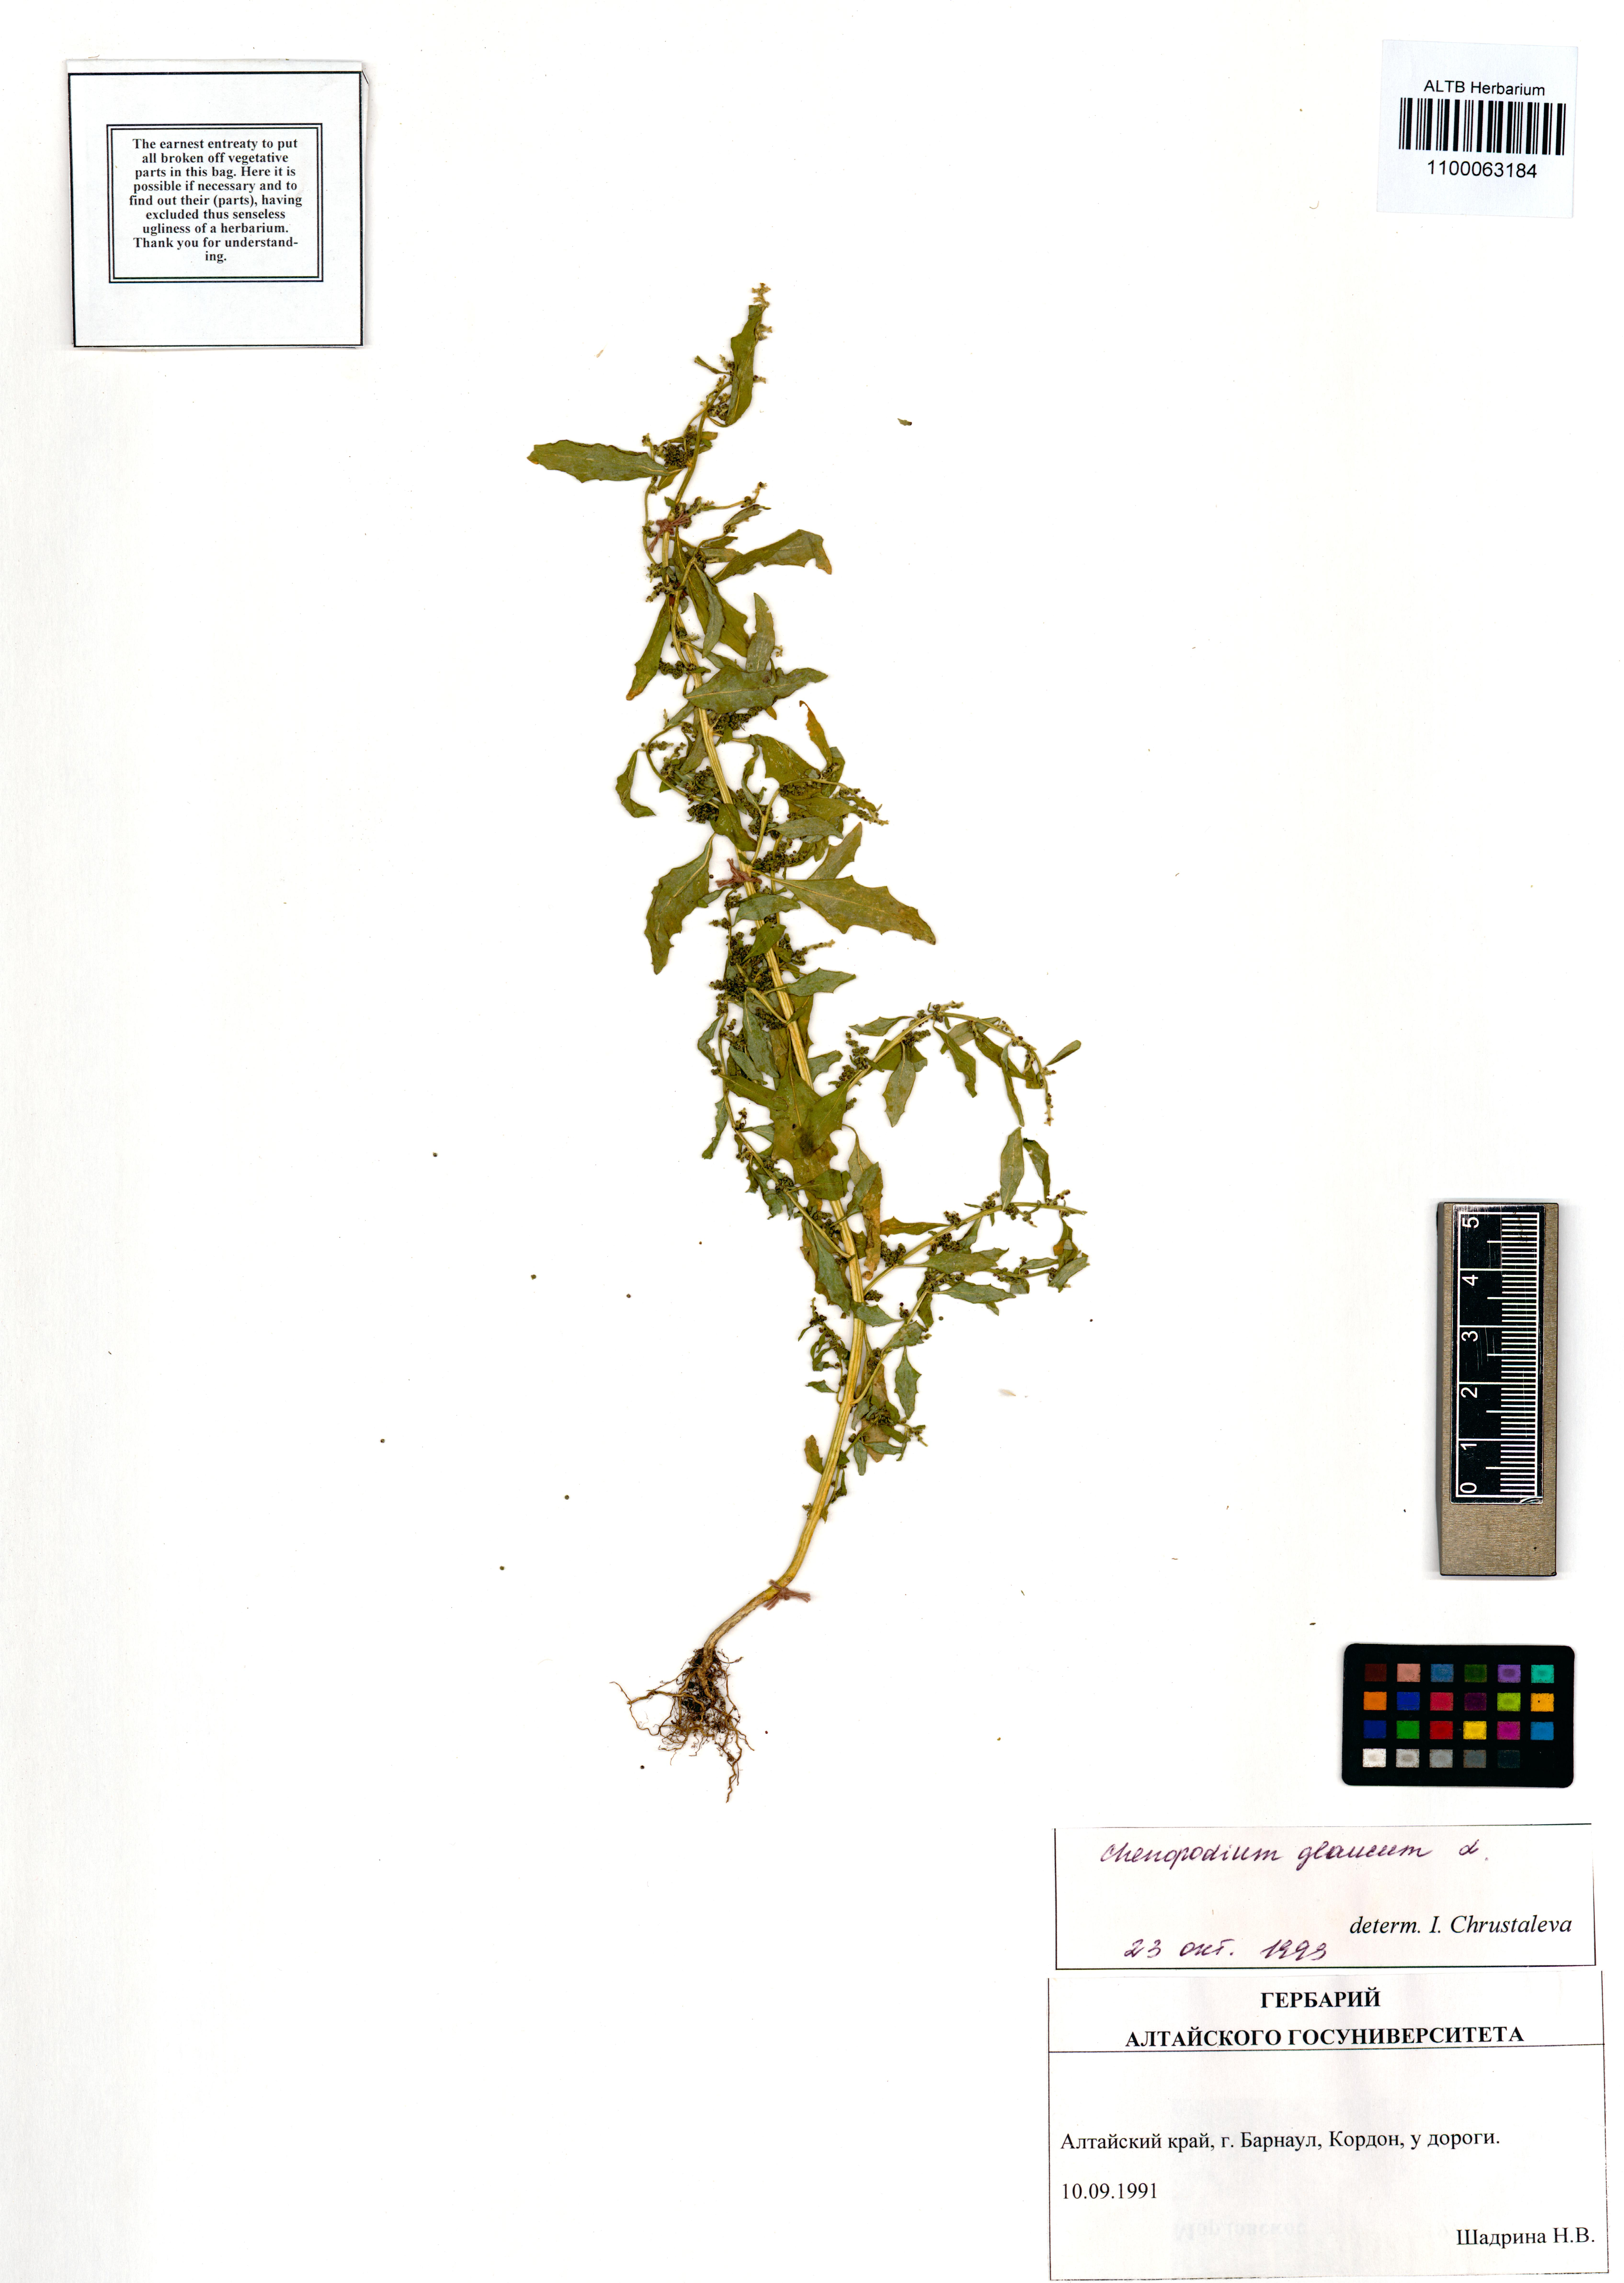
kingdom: Plantae
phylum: Tracheophyta
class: Magnoliopsida
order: Caryophyllales
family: Amaranthaceae
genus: Oxybasis
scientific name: Oxybasis glauca
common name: Glaucous goosefoot
